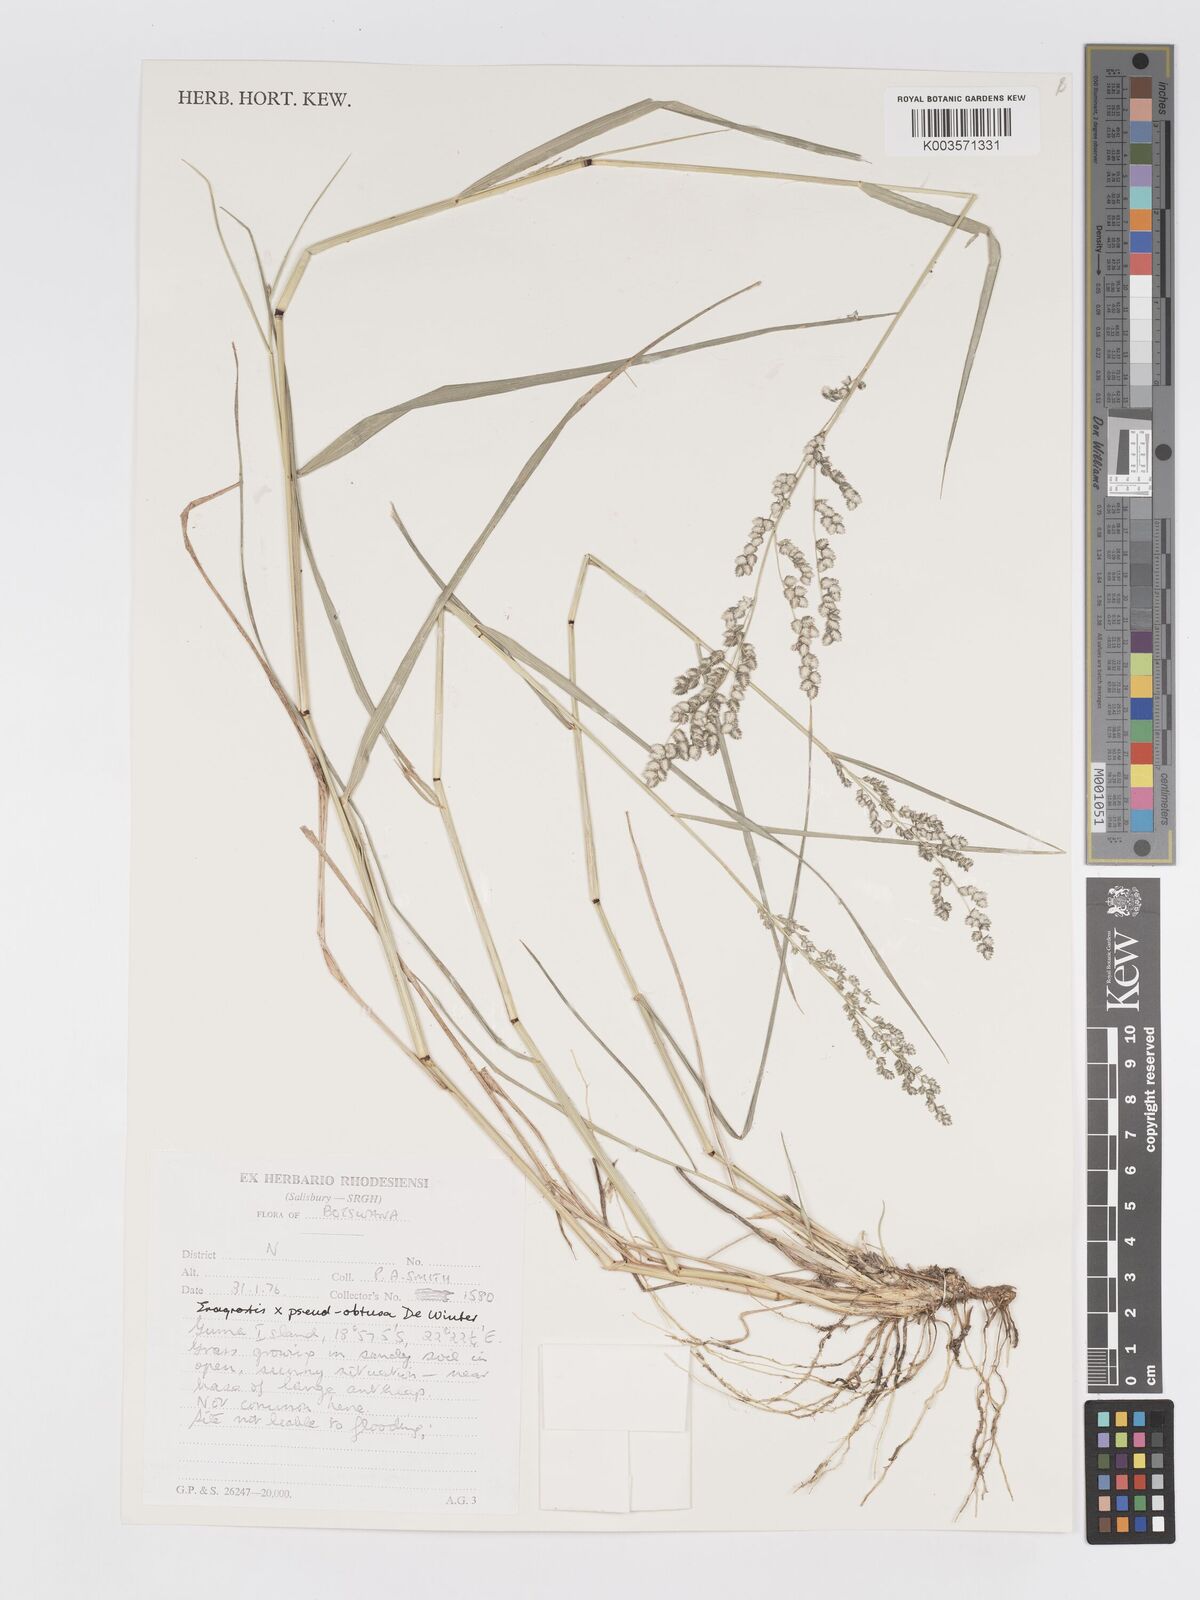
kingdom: Plantae
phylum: Tracheophyta
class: Liliopsida
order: Poales
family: Poaceae
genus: Eragrostis
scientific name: Eragrostis echinochloidea
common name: African lovegrass
